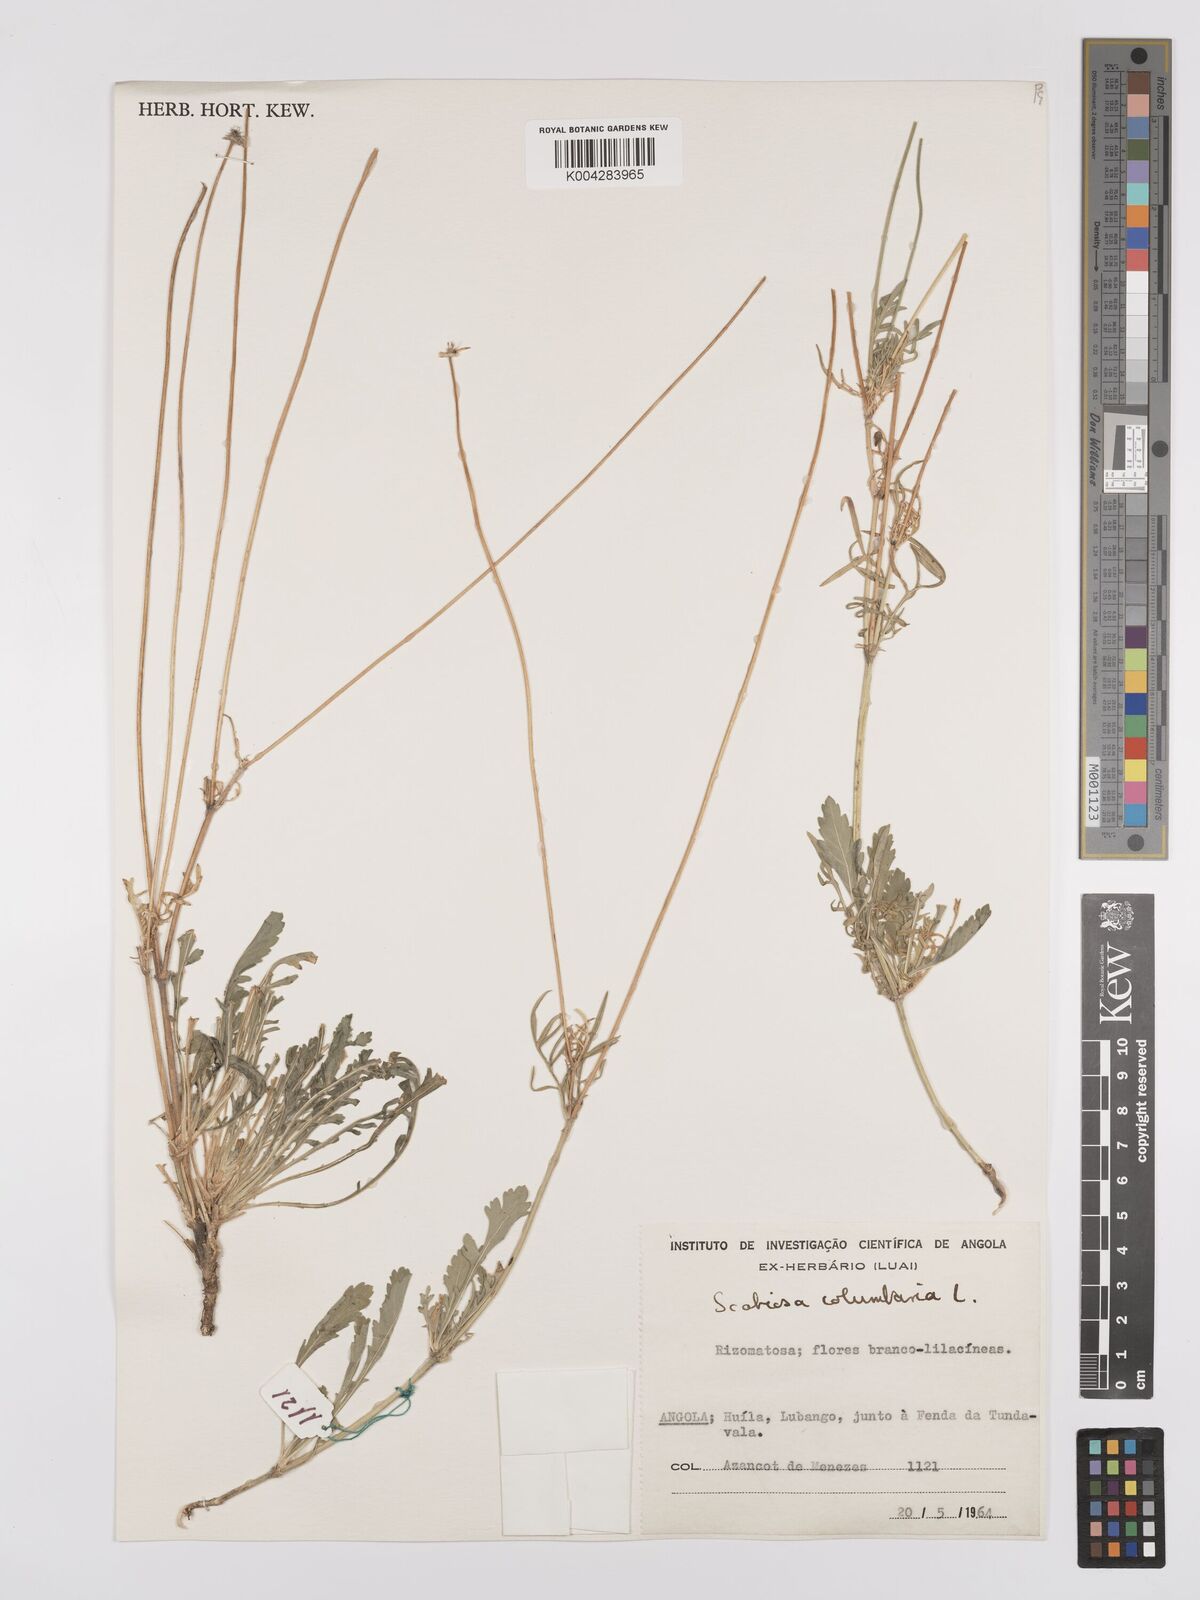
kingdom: Plantae
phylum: Tracheophyta
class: Magnoliopsida
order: Dipsacales
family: Caprifoliaceae
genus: Scabiosa
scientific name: Scabiosa columbaria
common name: Small scabious
